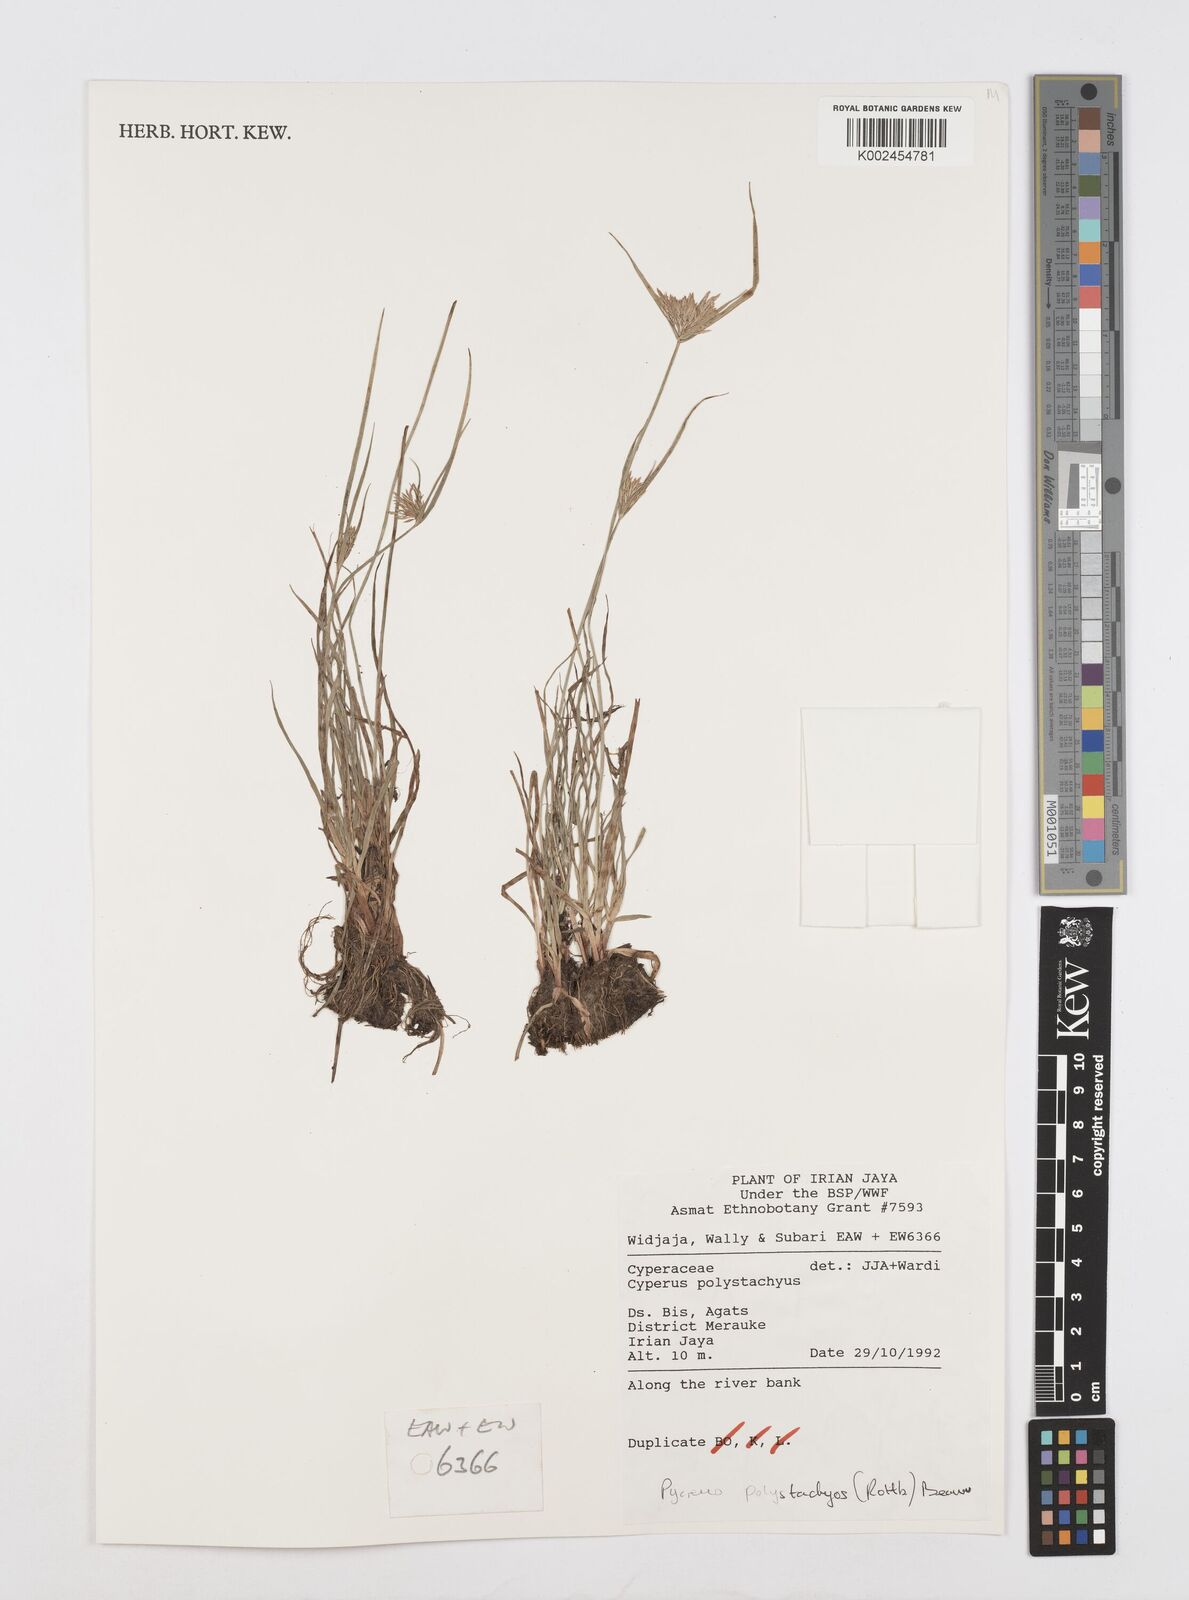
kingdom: Plantae
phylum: Tracheophyta
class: Liliopsida
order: Poales
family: Cyperaceae
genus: Cyperus
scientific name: Cyperus polystachyos
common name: Bunchy flat sedge
